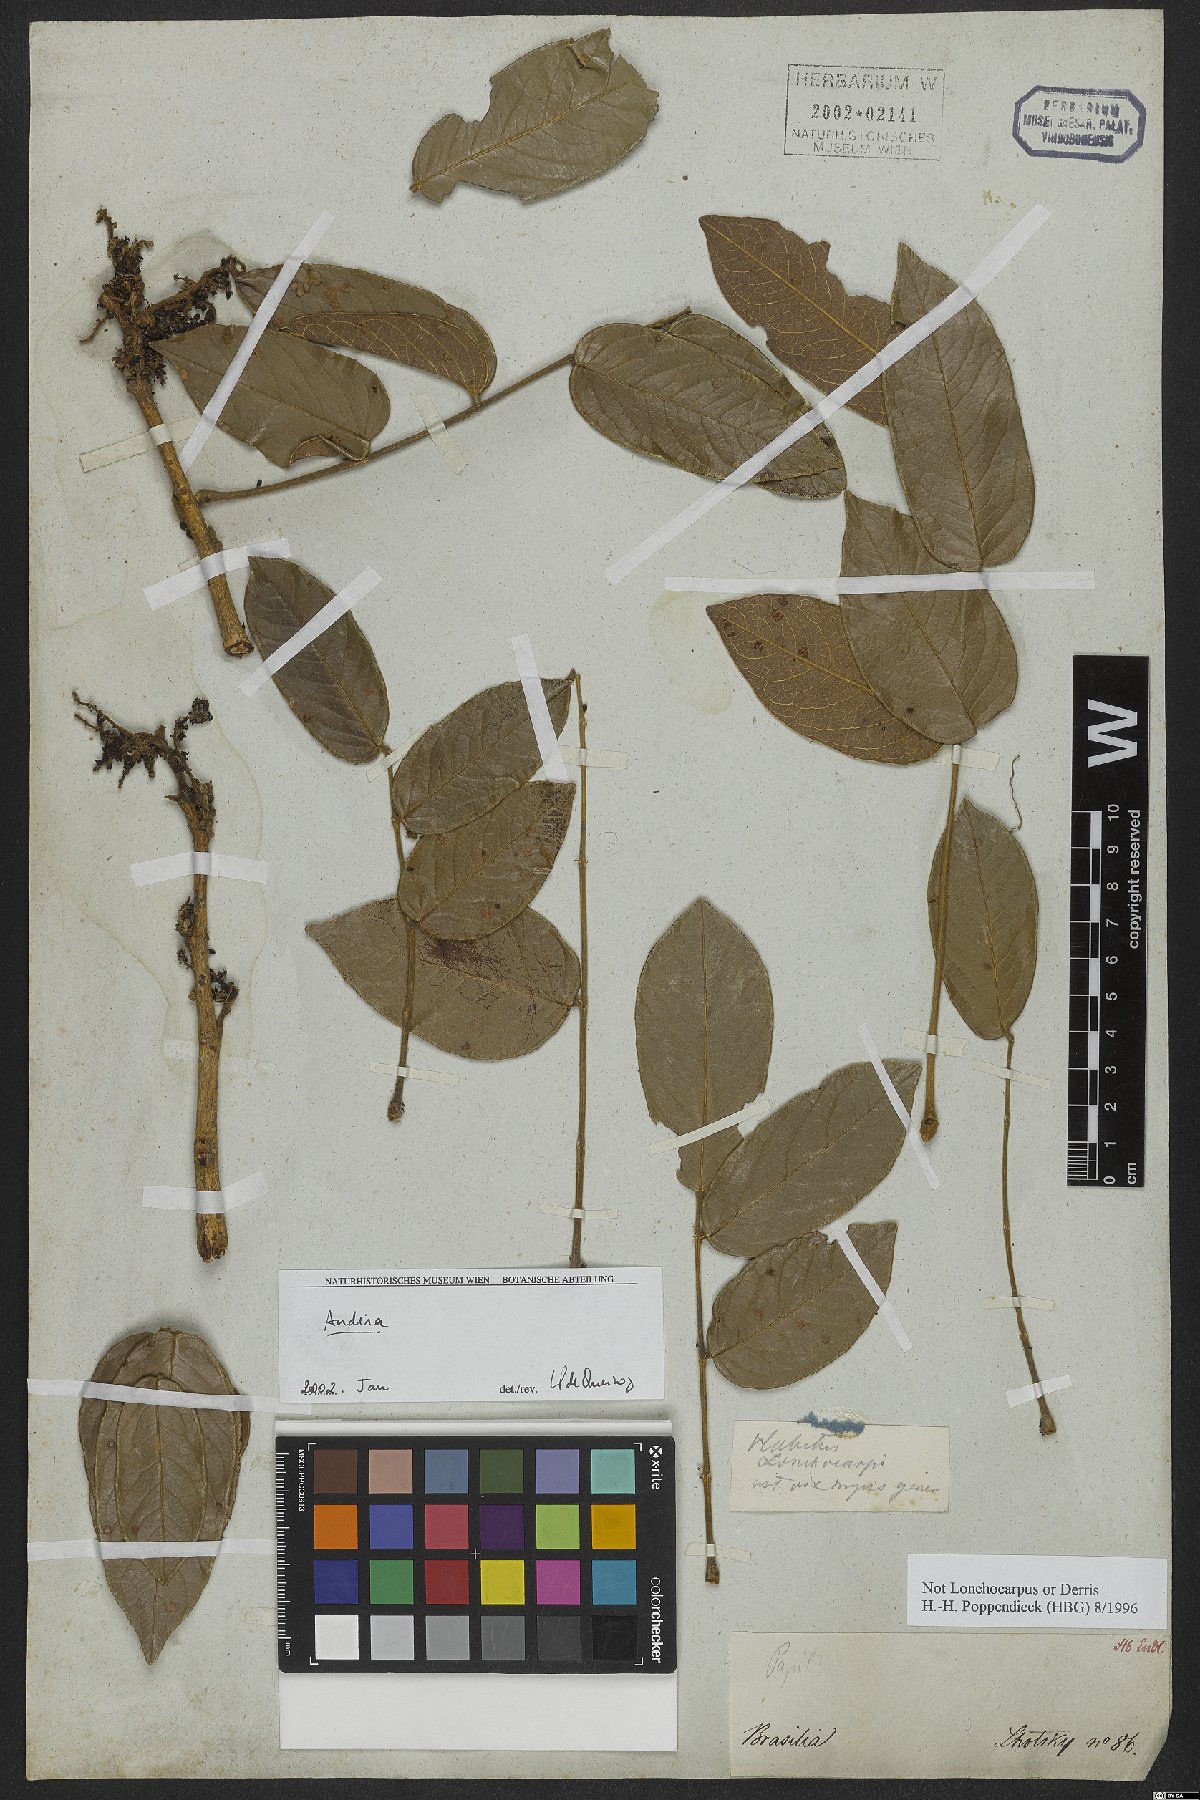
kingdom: Plantae
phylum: Tracheophyta
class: Magnoliopsida
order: Fabales
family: Fabaceae
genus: Andira
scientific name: Andira
